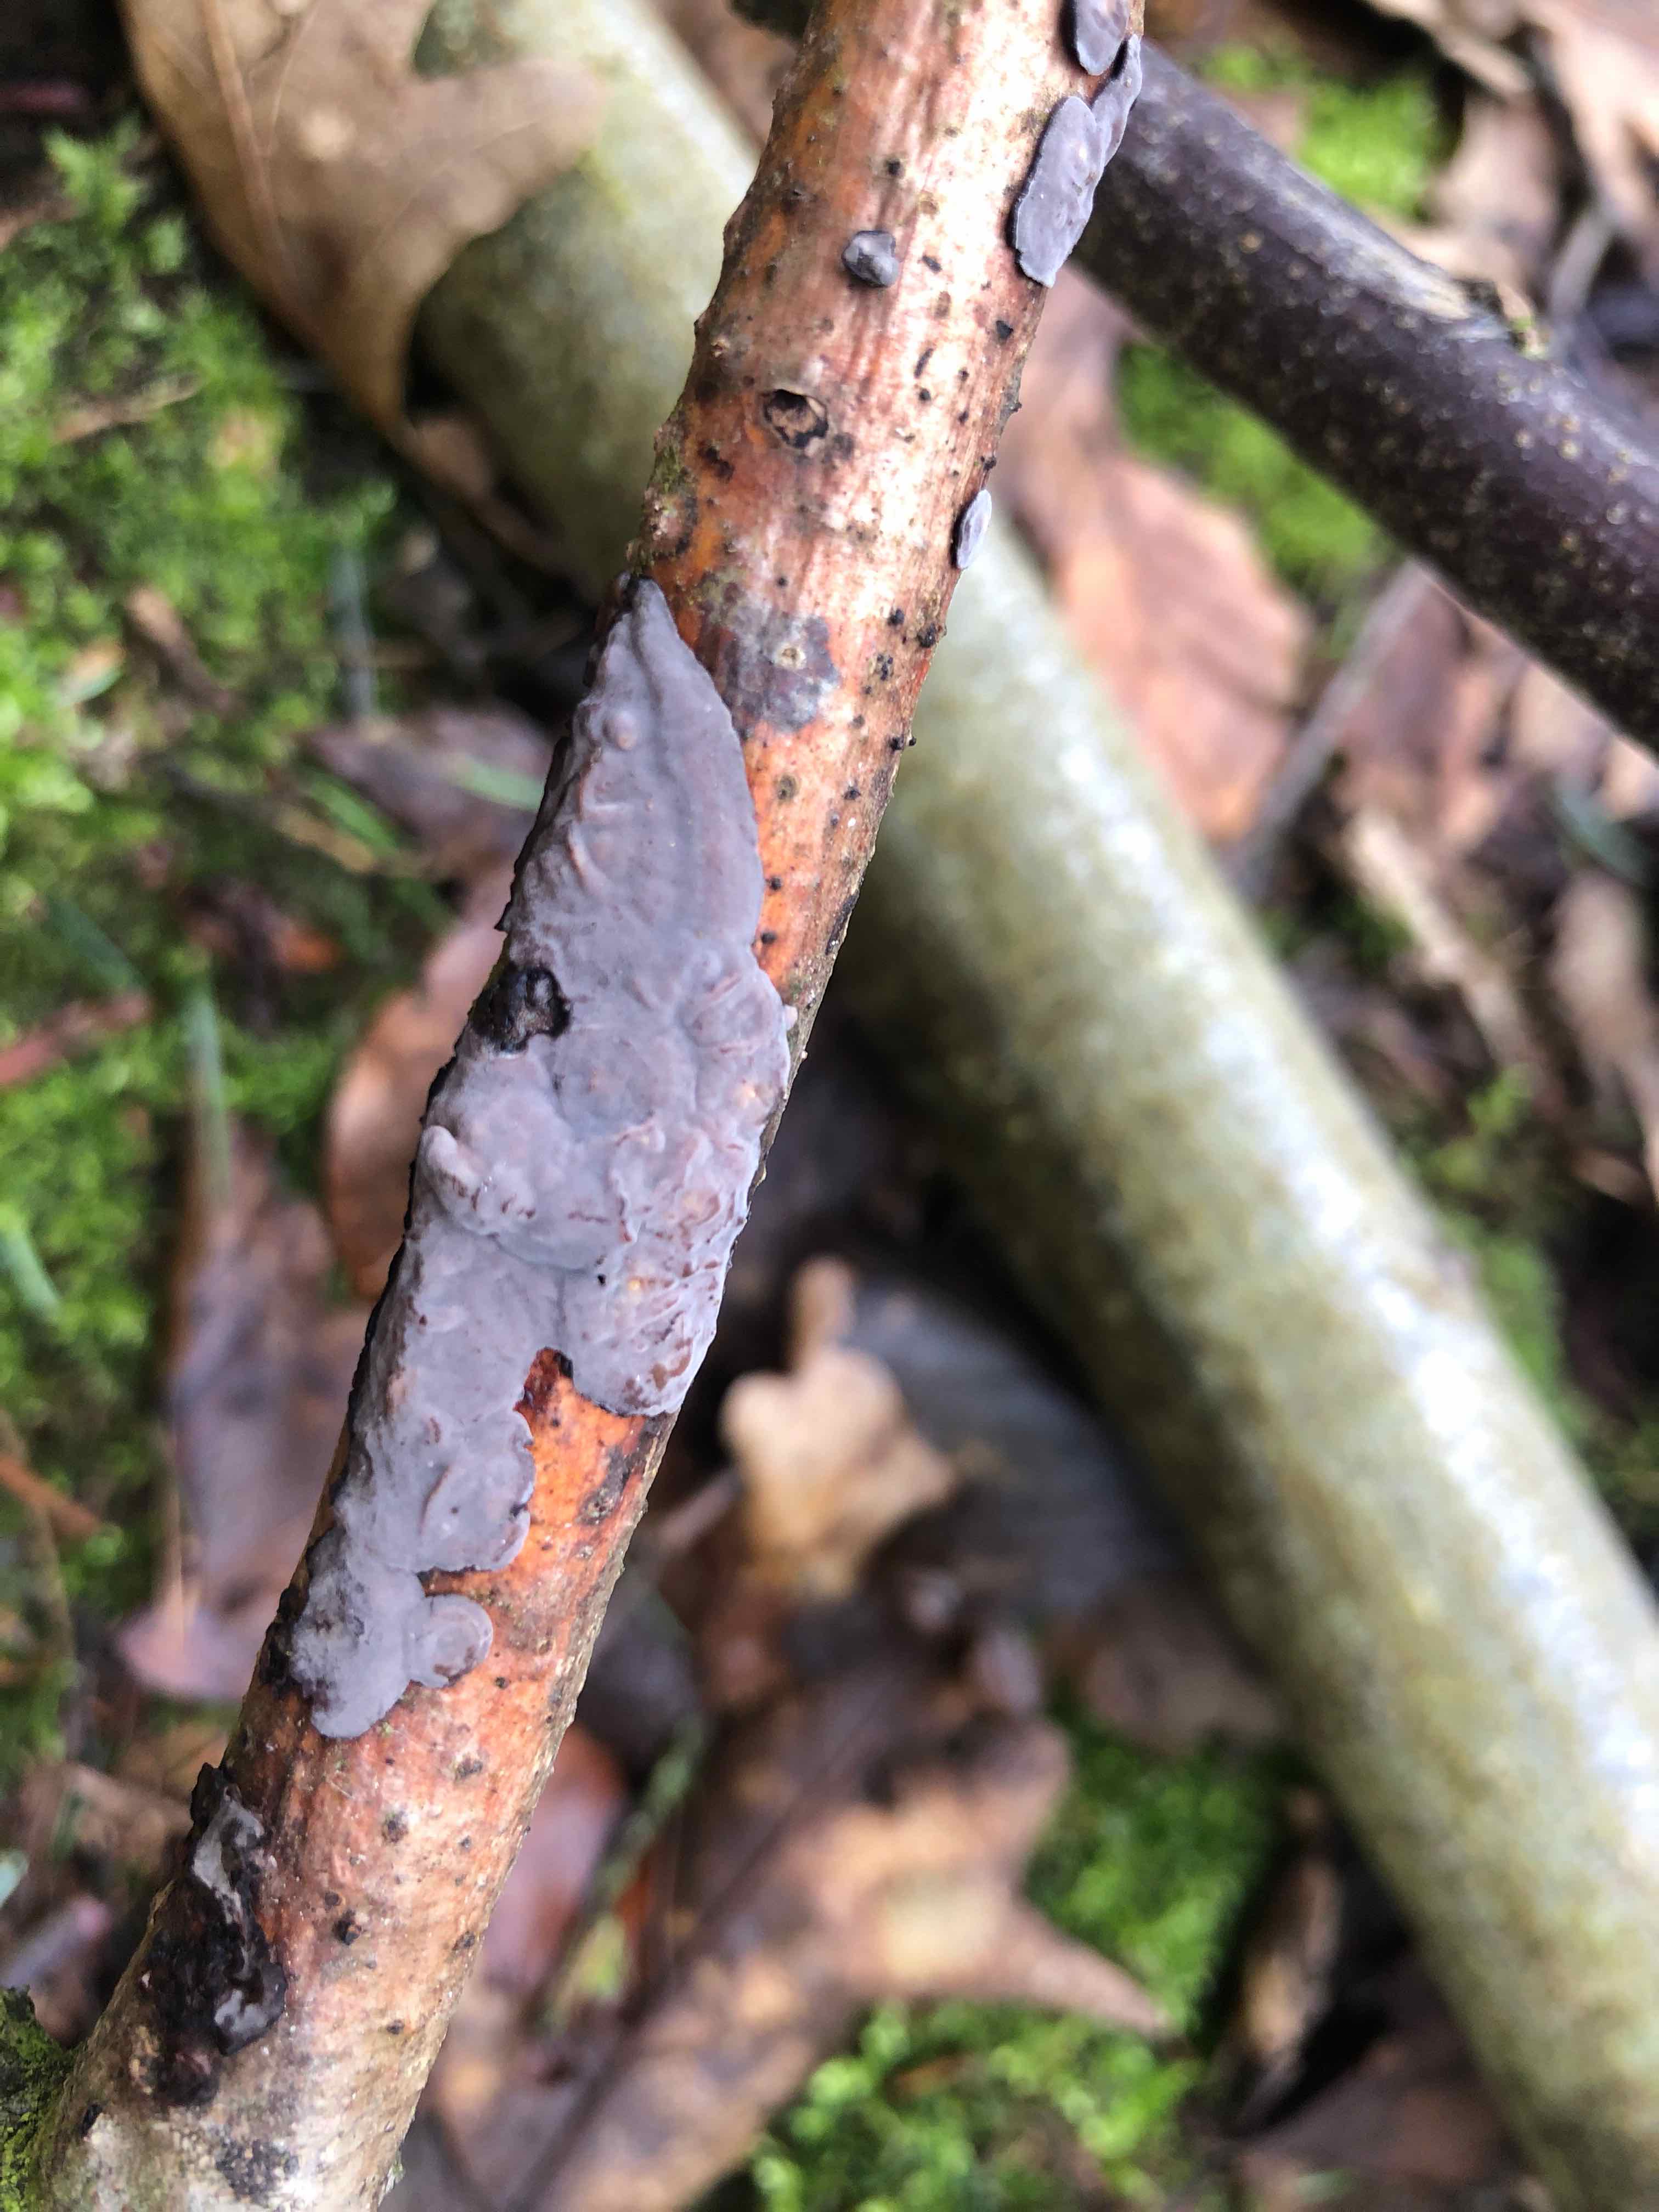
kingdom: Fungi
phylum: Basidiomycota
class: Agaricomycetes
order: Russulales
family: Peniophoraceae
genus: Peniophora
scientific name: Peniophora quercina
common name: ege-voksskind
